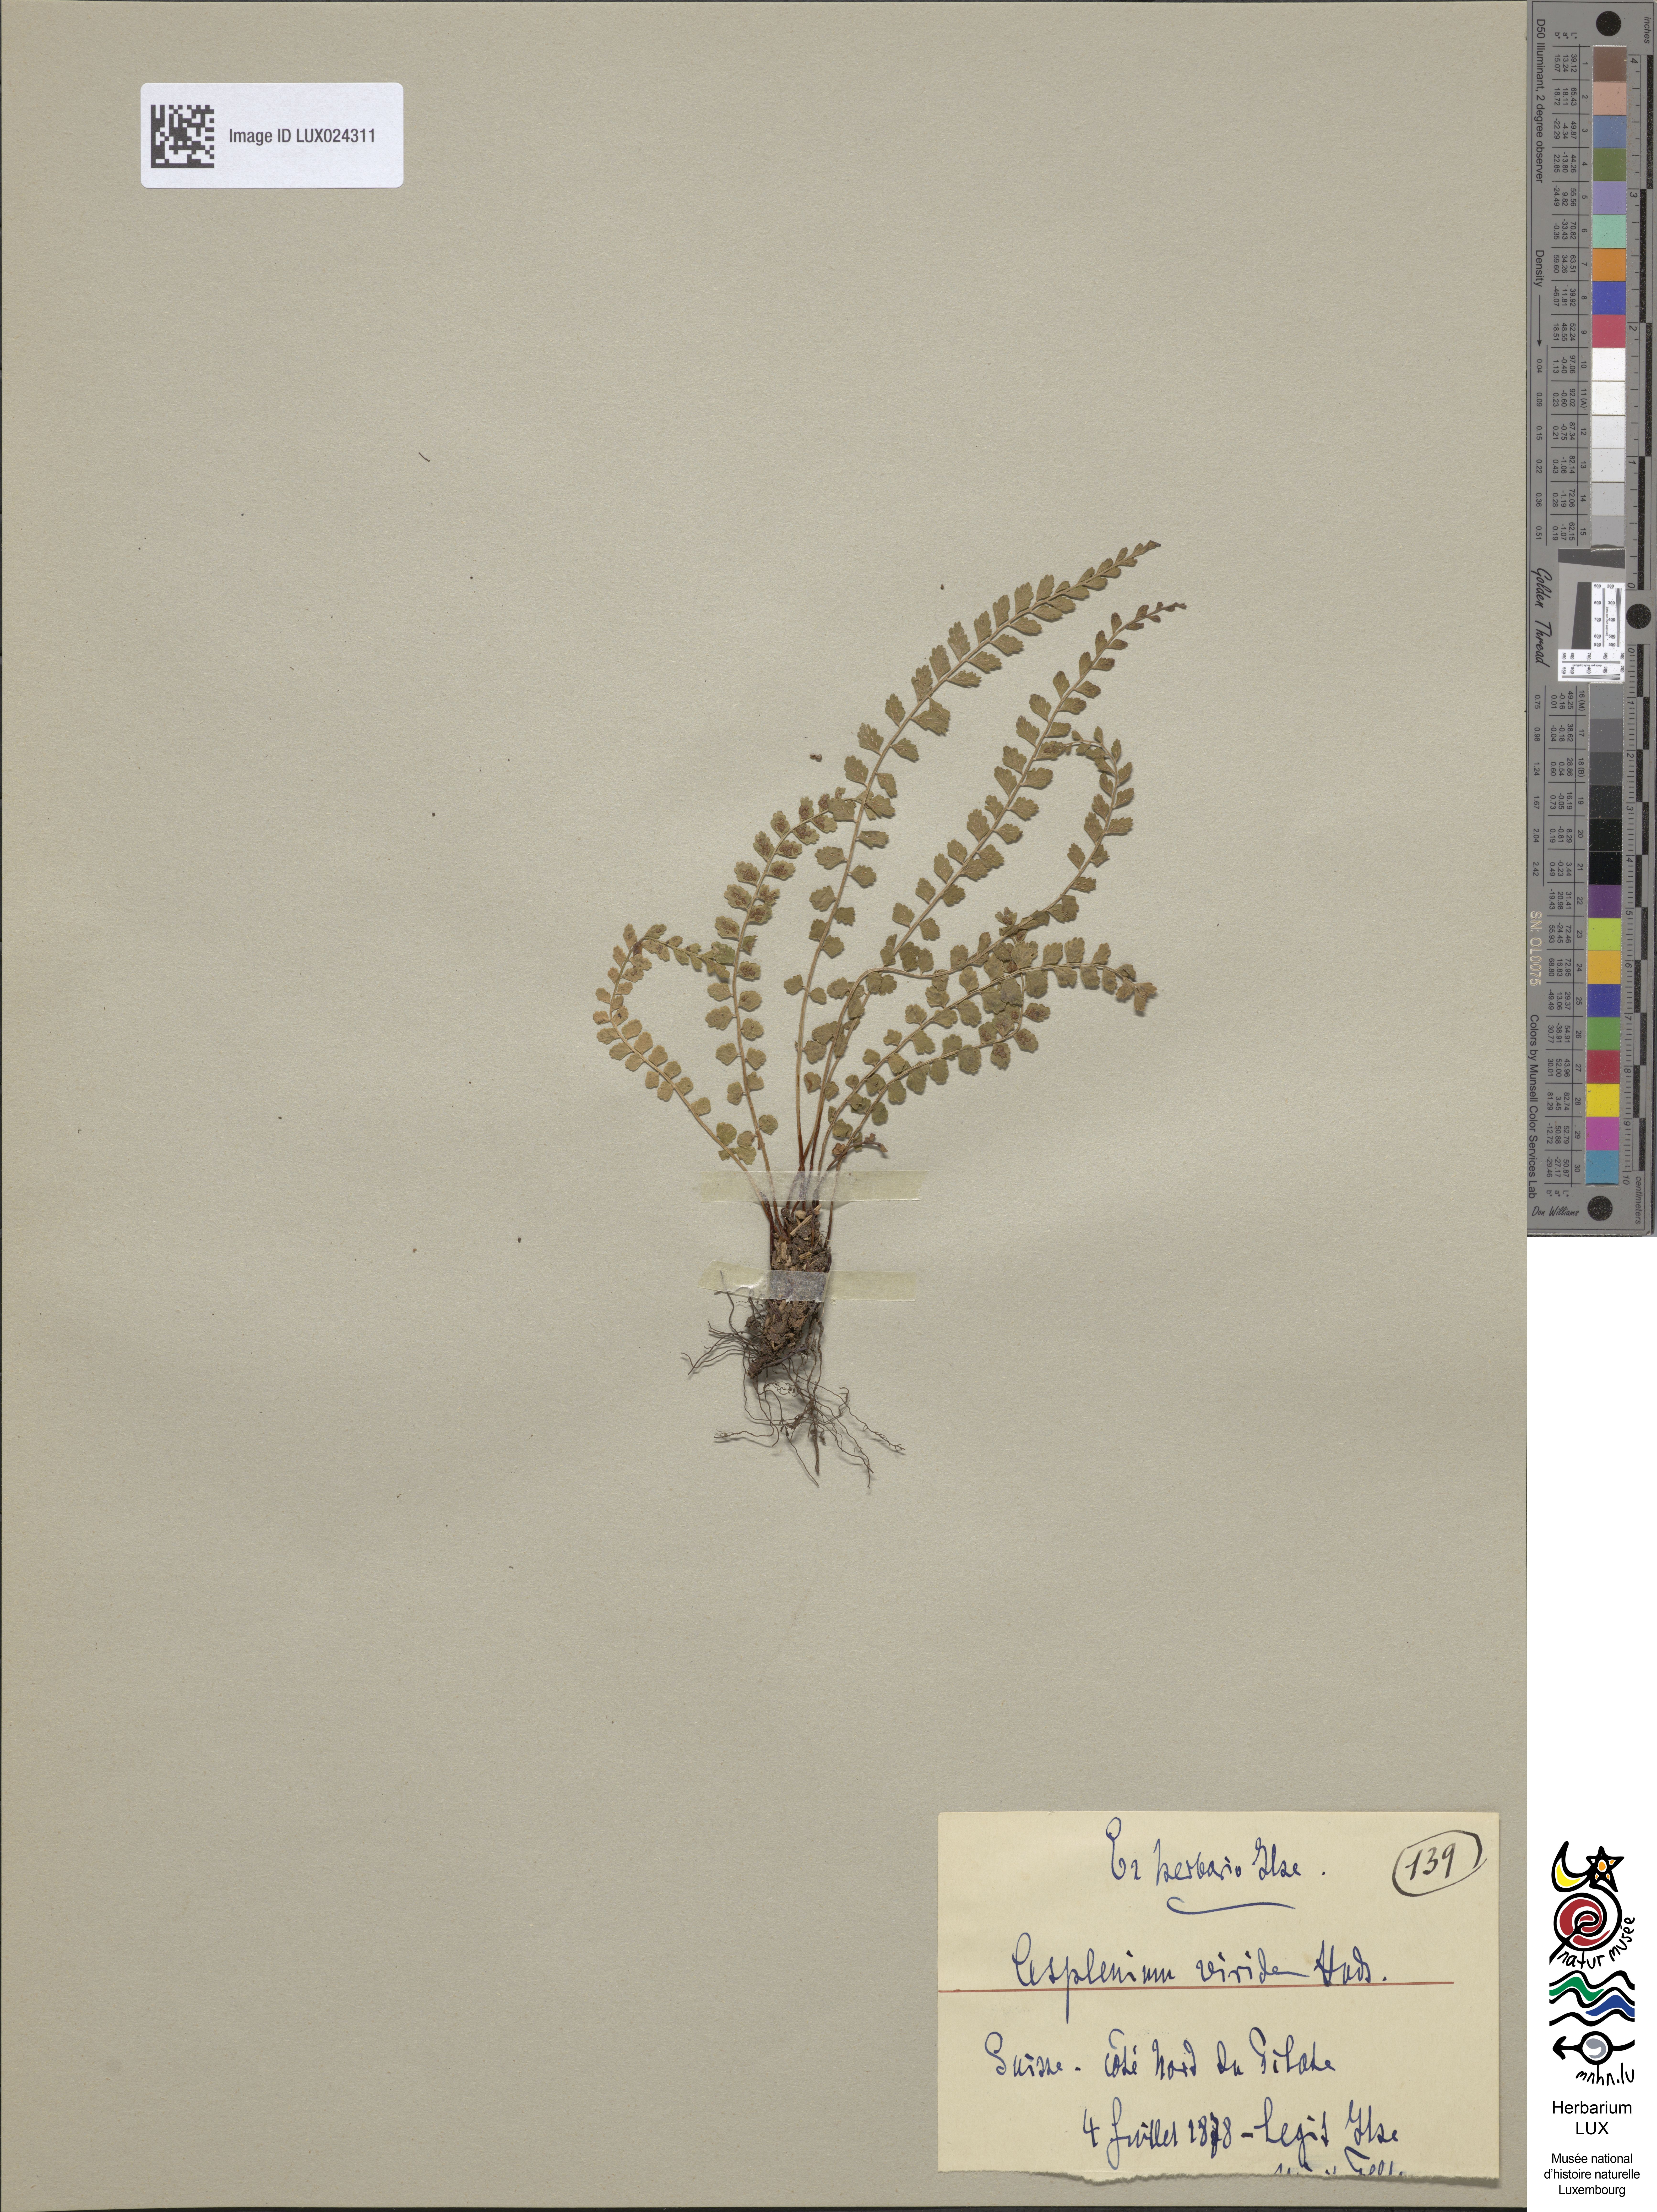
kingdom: Plantae
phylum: Tracheophyta
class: Polypodiopsida
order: Polypodiales
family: Aspleniaceae
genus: Asplenium
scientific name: Asplenium viride
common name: Green spleenwort
